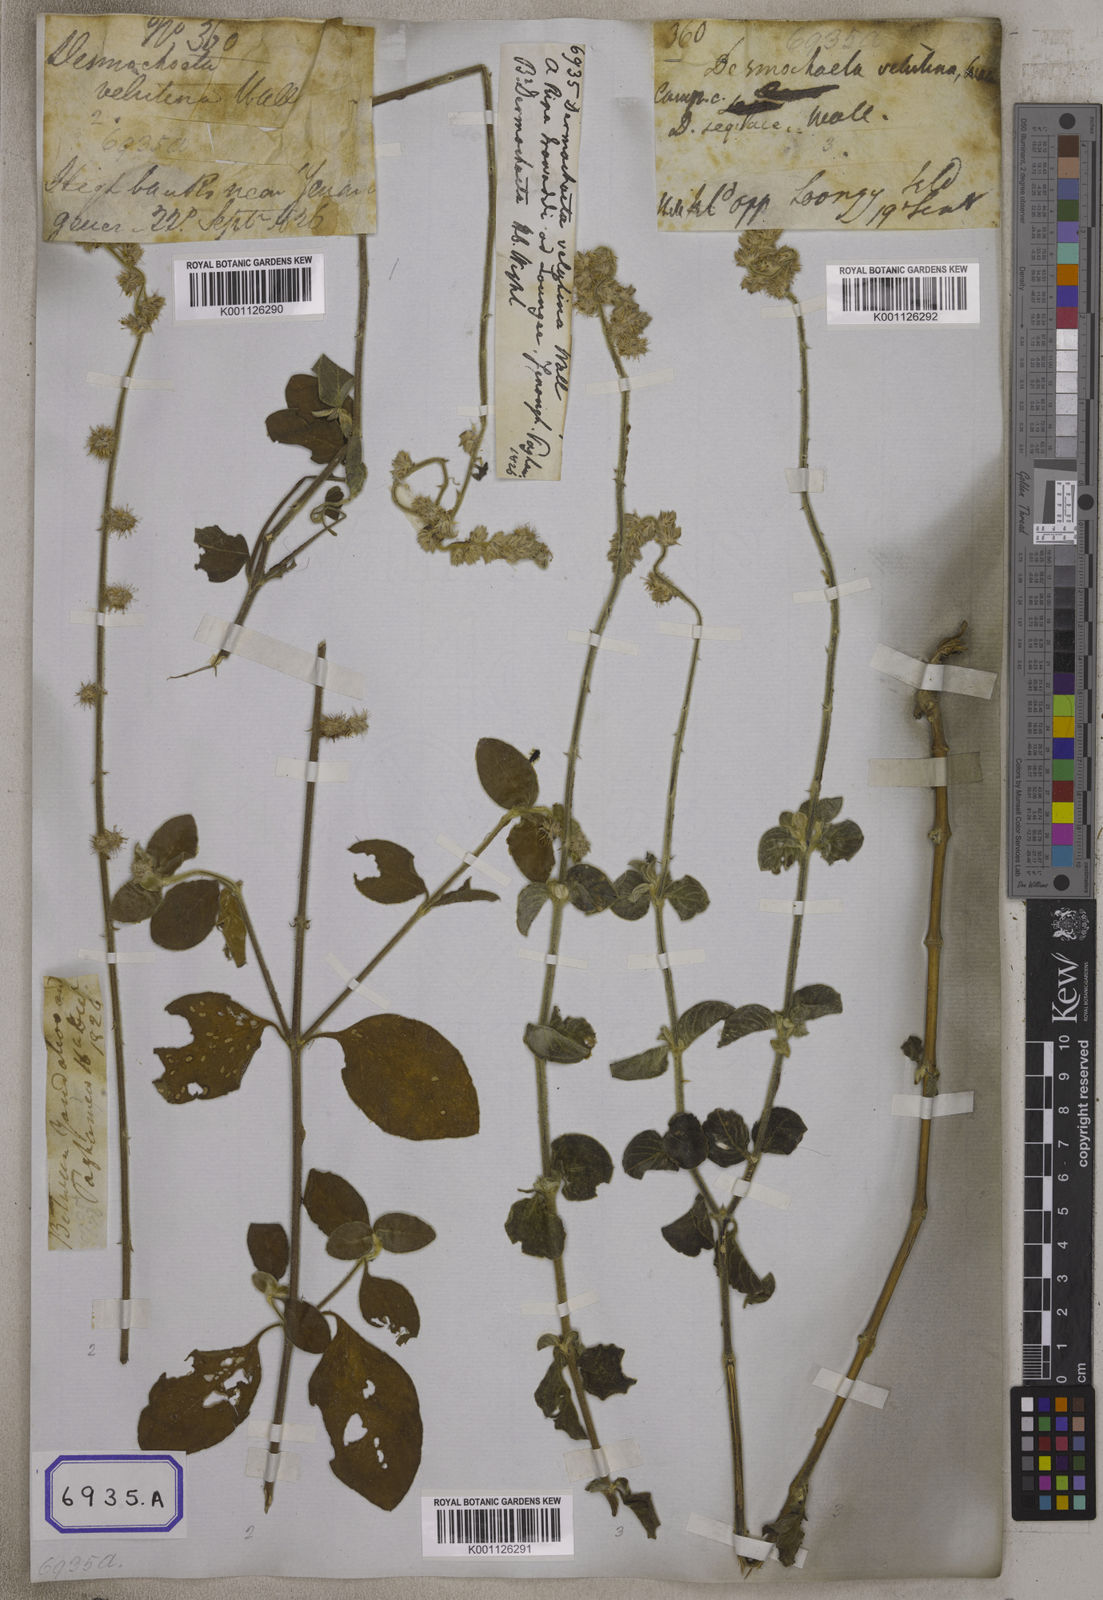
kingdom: Plantae
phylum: Tracheophyta
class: Magnoliopsida
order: Caryophyllales
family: Amaranthaceae
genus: Pupalia
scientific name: Pupalia
